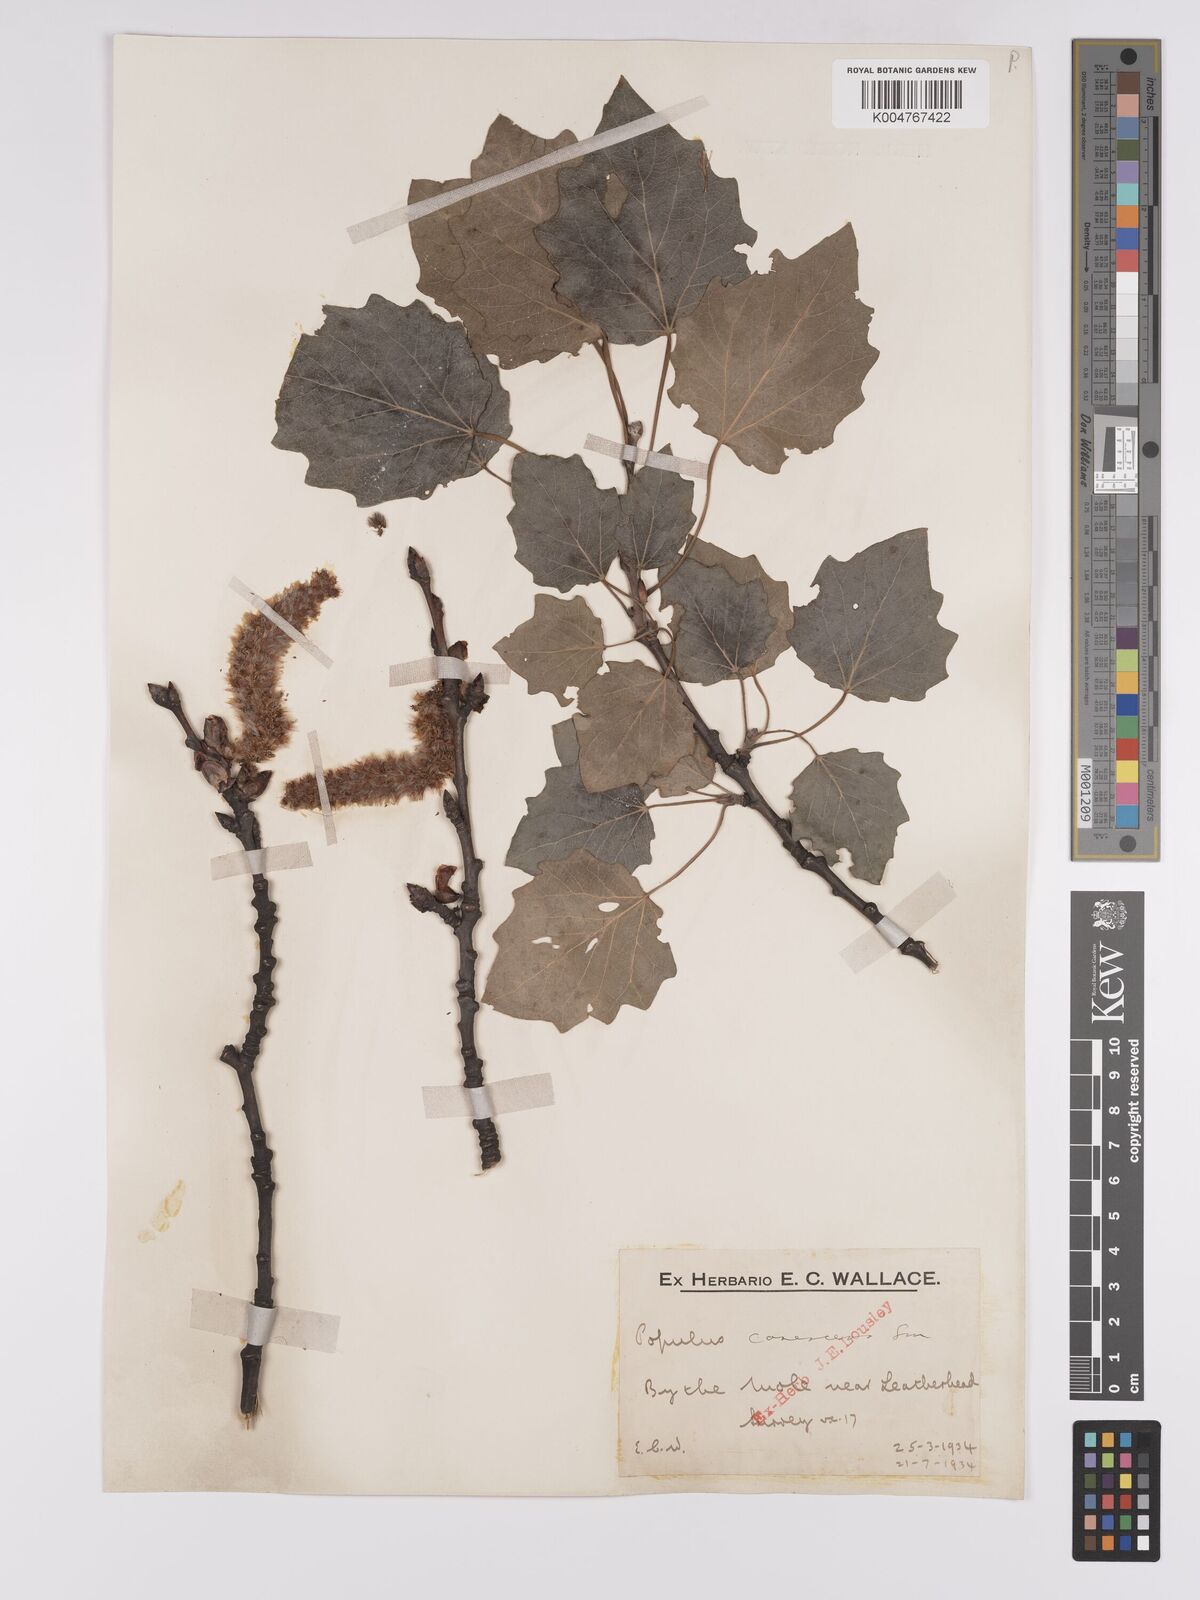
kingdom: Plantae
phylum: Tracheophyta
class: Magnoliopsida
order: Malpighiales
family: Salicaceae
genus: Populus
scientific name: Populus canescens
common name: Gray poplar
